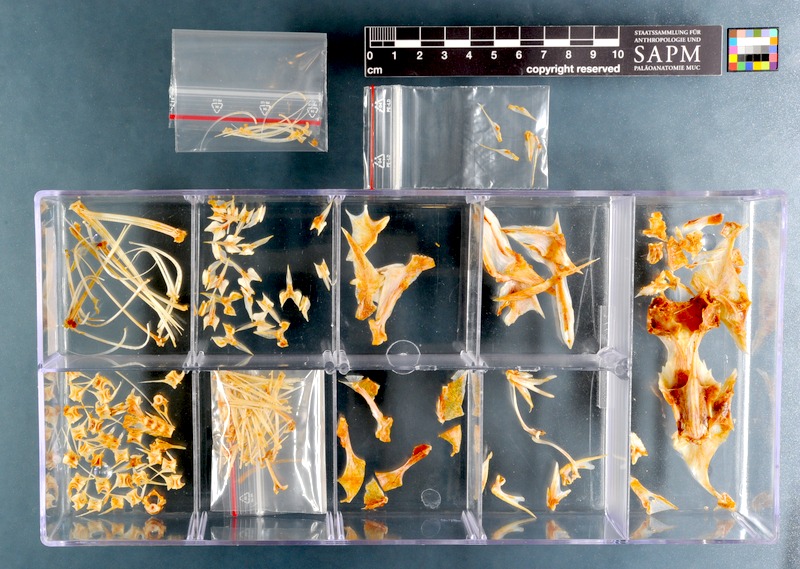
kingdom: Animalia
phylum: Chordata
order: Scorpaeniformes
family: Triglidae
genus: Chelidonichthys
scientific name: Chelidonichthys queketti
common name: Lesser gurnard
